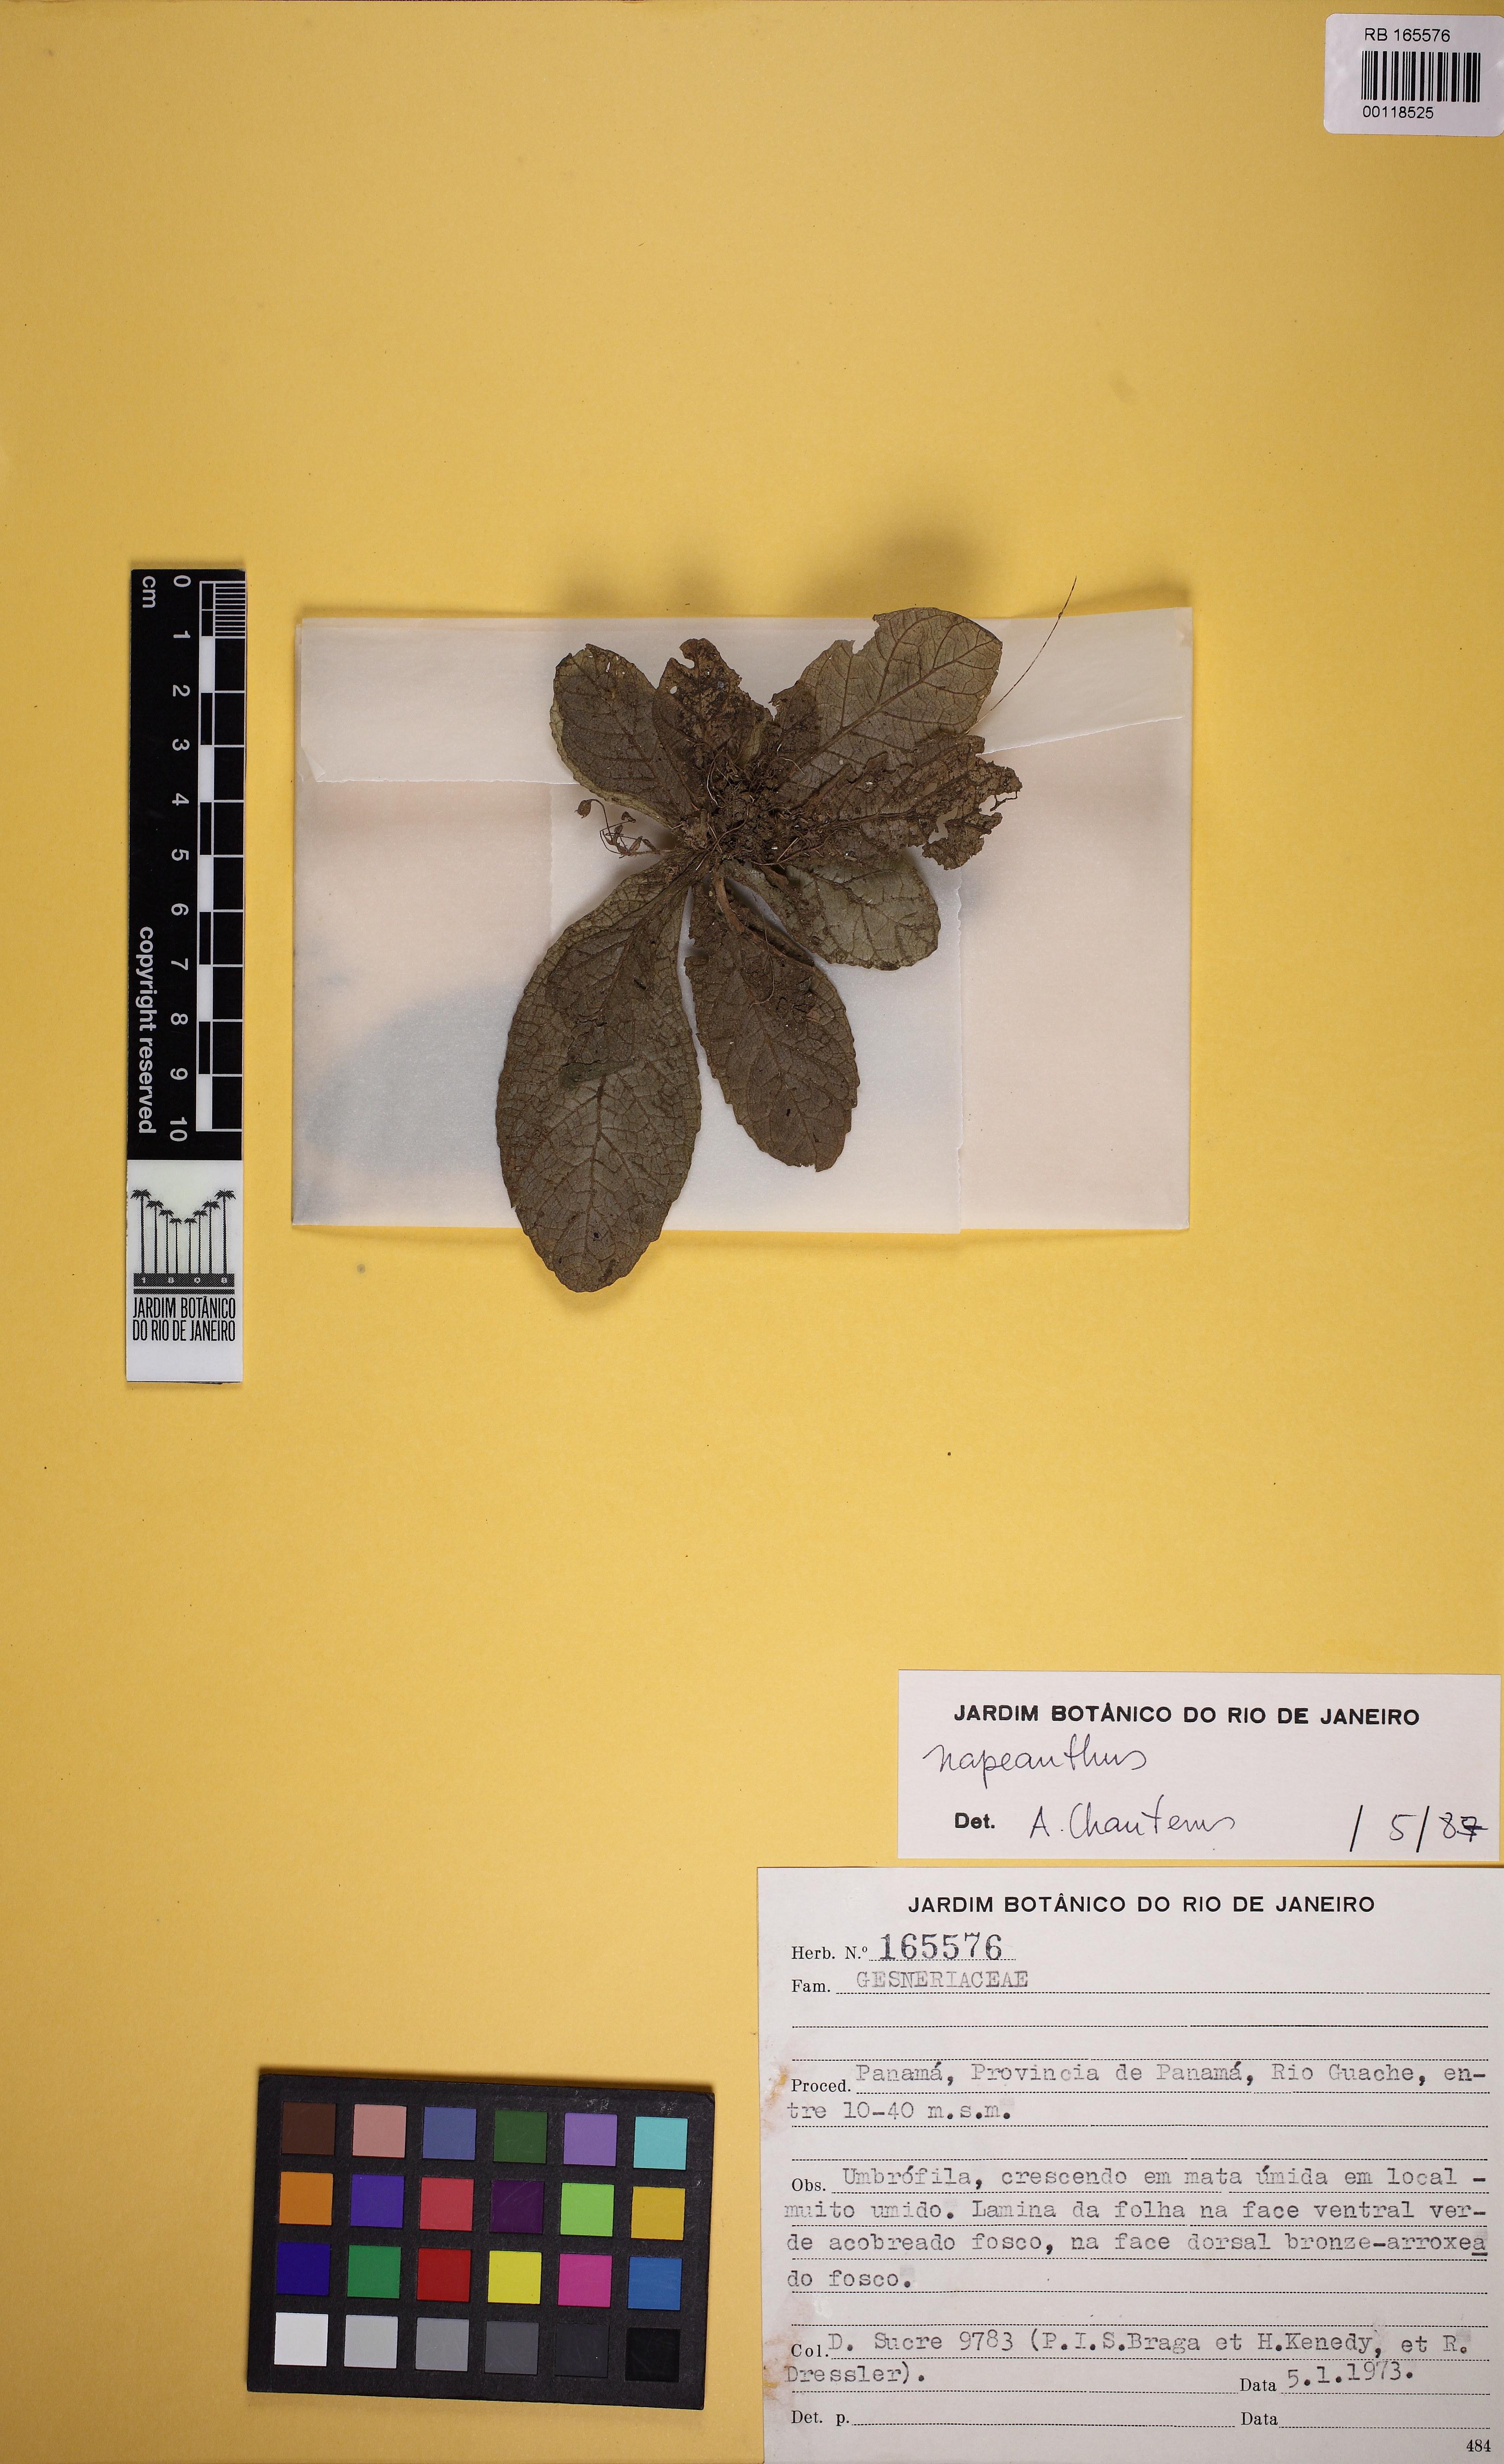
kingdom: Plantae
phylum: Tracheophyta
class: Magnoliopsida
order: Lamiales
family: Gesneriaceae
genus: Napeanthus
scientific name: Napeanthus
